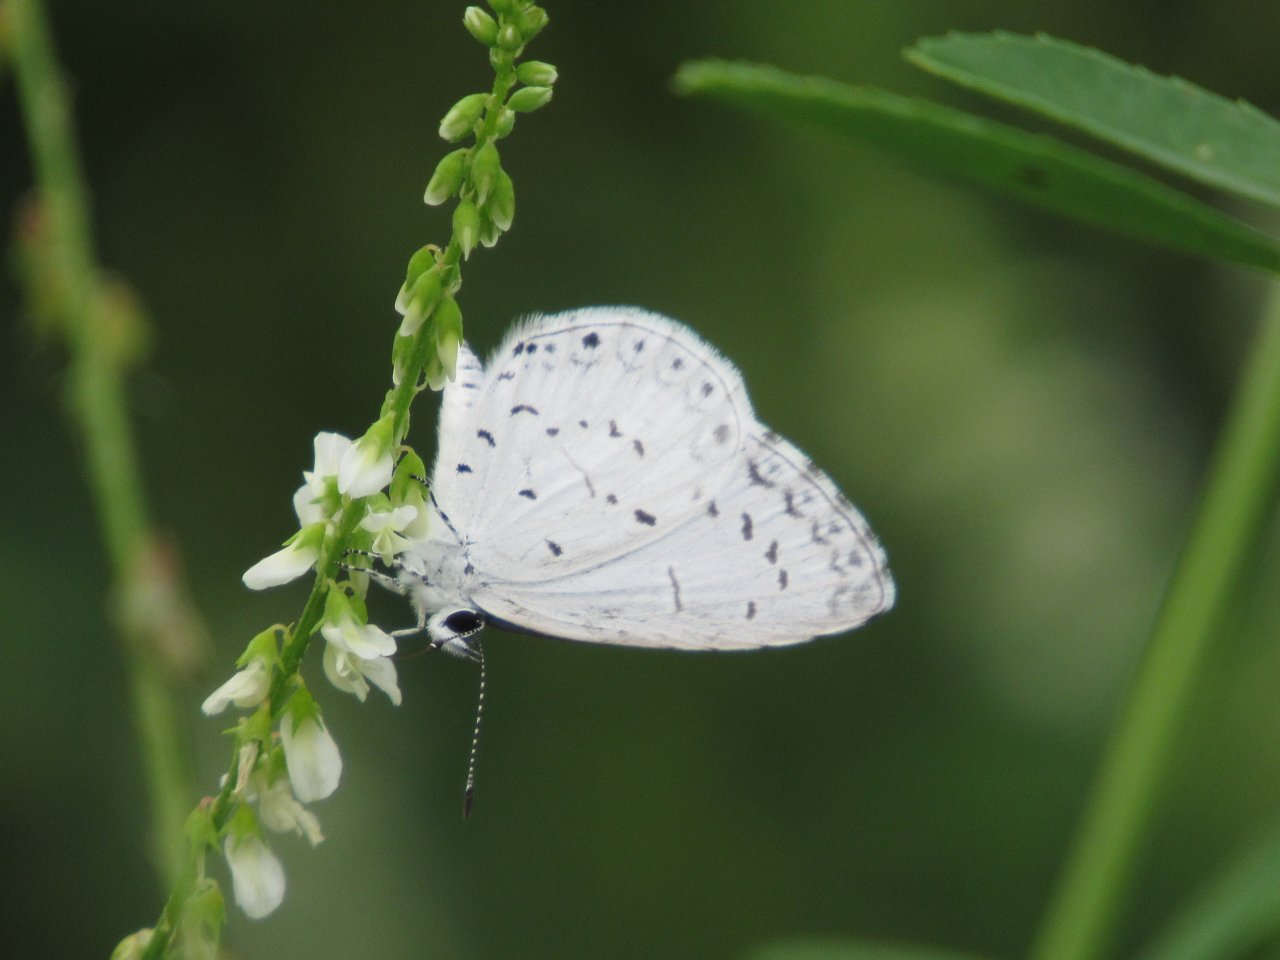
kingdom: Animalia
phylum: Arthropoda
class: Insecta
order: Lepidoptera
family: Lycaenidae
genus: Cyaniris
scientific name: Cyaniris neglecta
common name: Summer Azure
